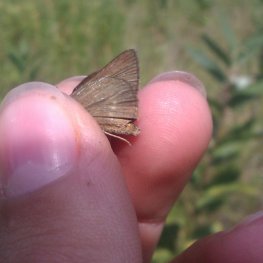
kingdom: Animalia
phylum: Arthropoda
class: Insecta
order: Lepidoptera
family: Hesperiidae
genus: Euphyes
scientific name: Euphyes vestris
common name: Dun Skipper
